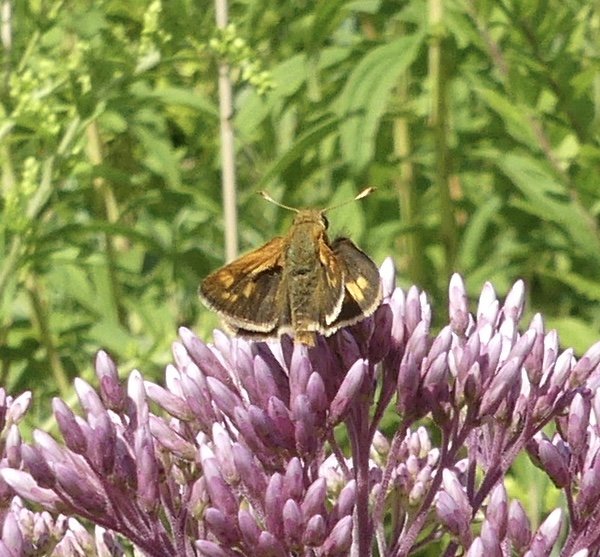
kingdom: Animalia
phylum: Arthropoda
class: Insecta
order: Lepidoptera
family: Hesperiidae
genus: Polites
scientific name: Polites coras
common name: Peck's Skipper
